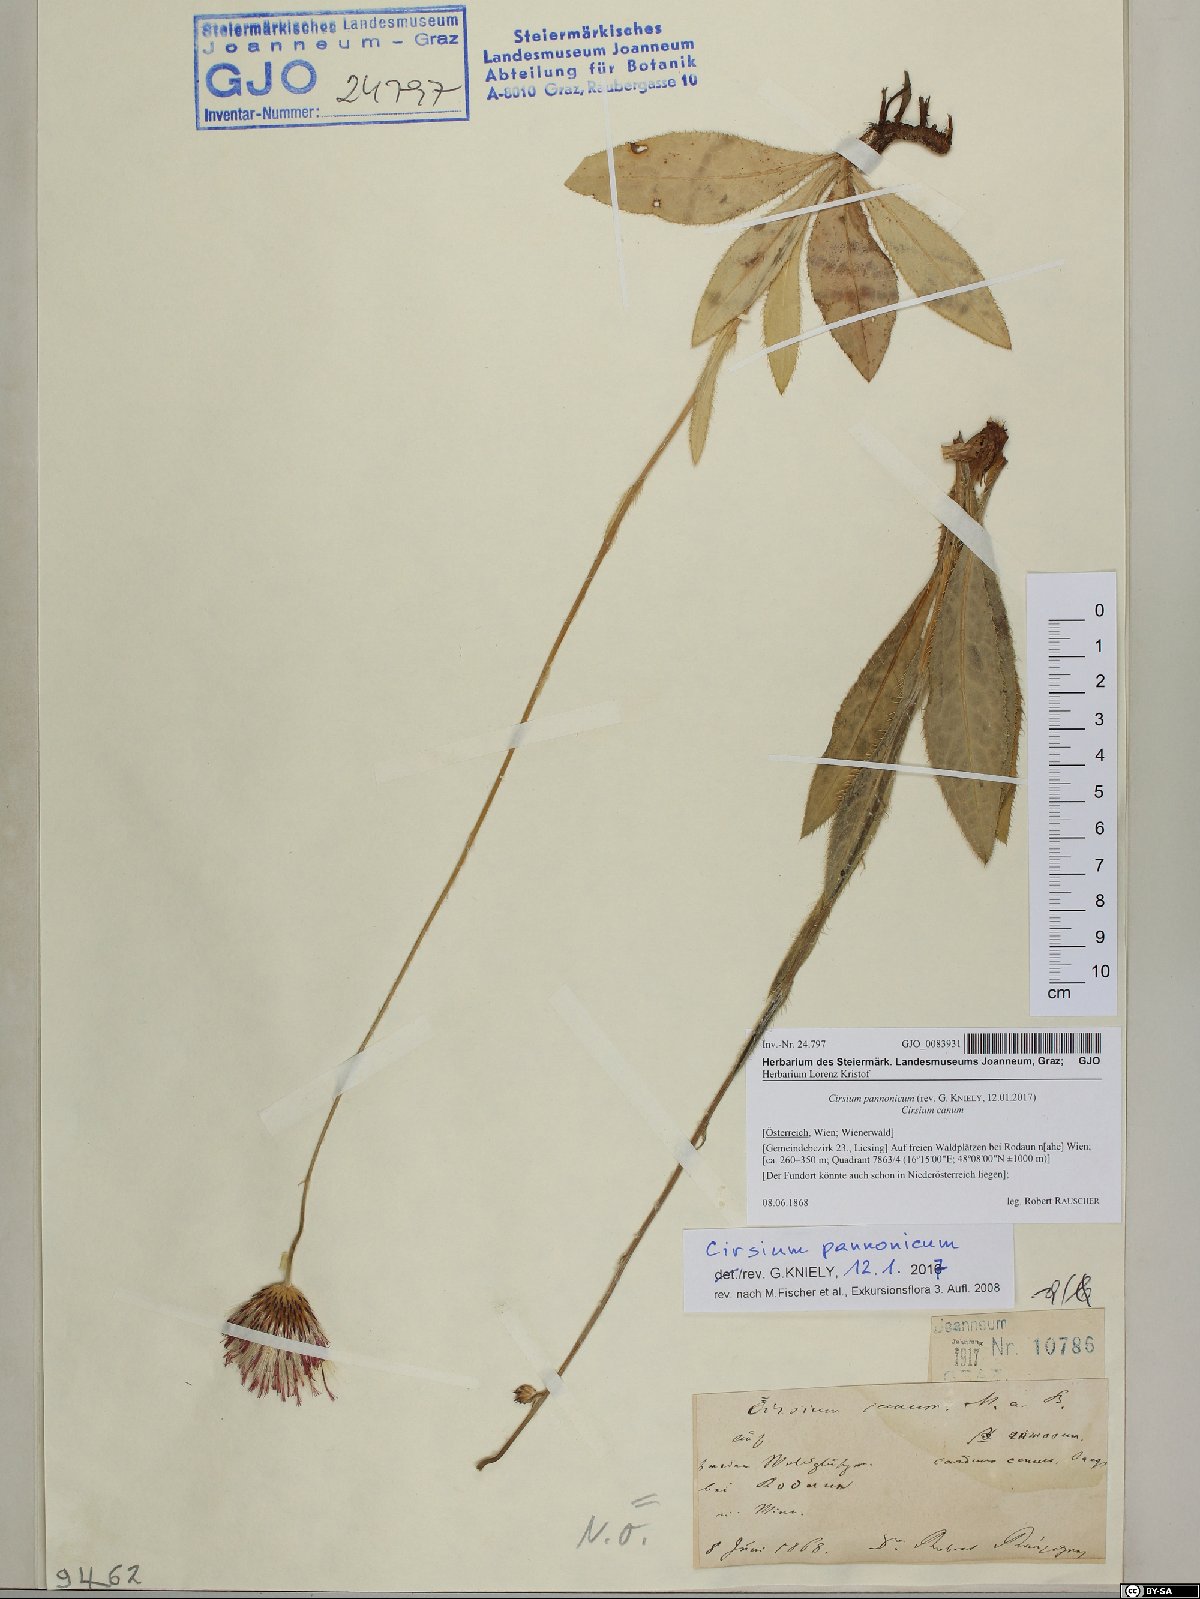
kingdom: Plantae
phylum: Tracheophyta
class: Magnoliopsida
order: Asterales
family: Asteraceae
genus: Cirsium
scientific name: Cirsium pannonicum
